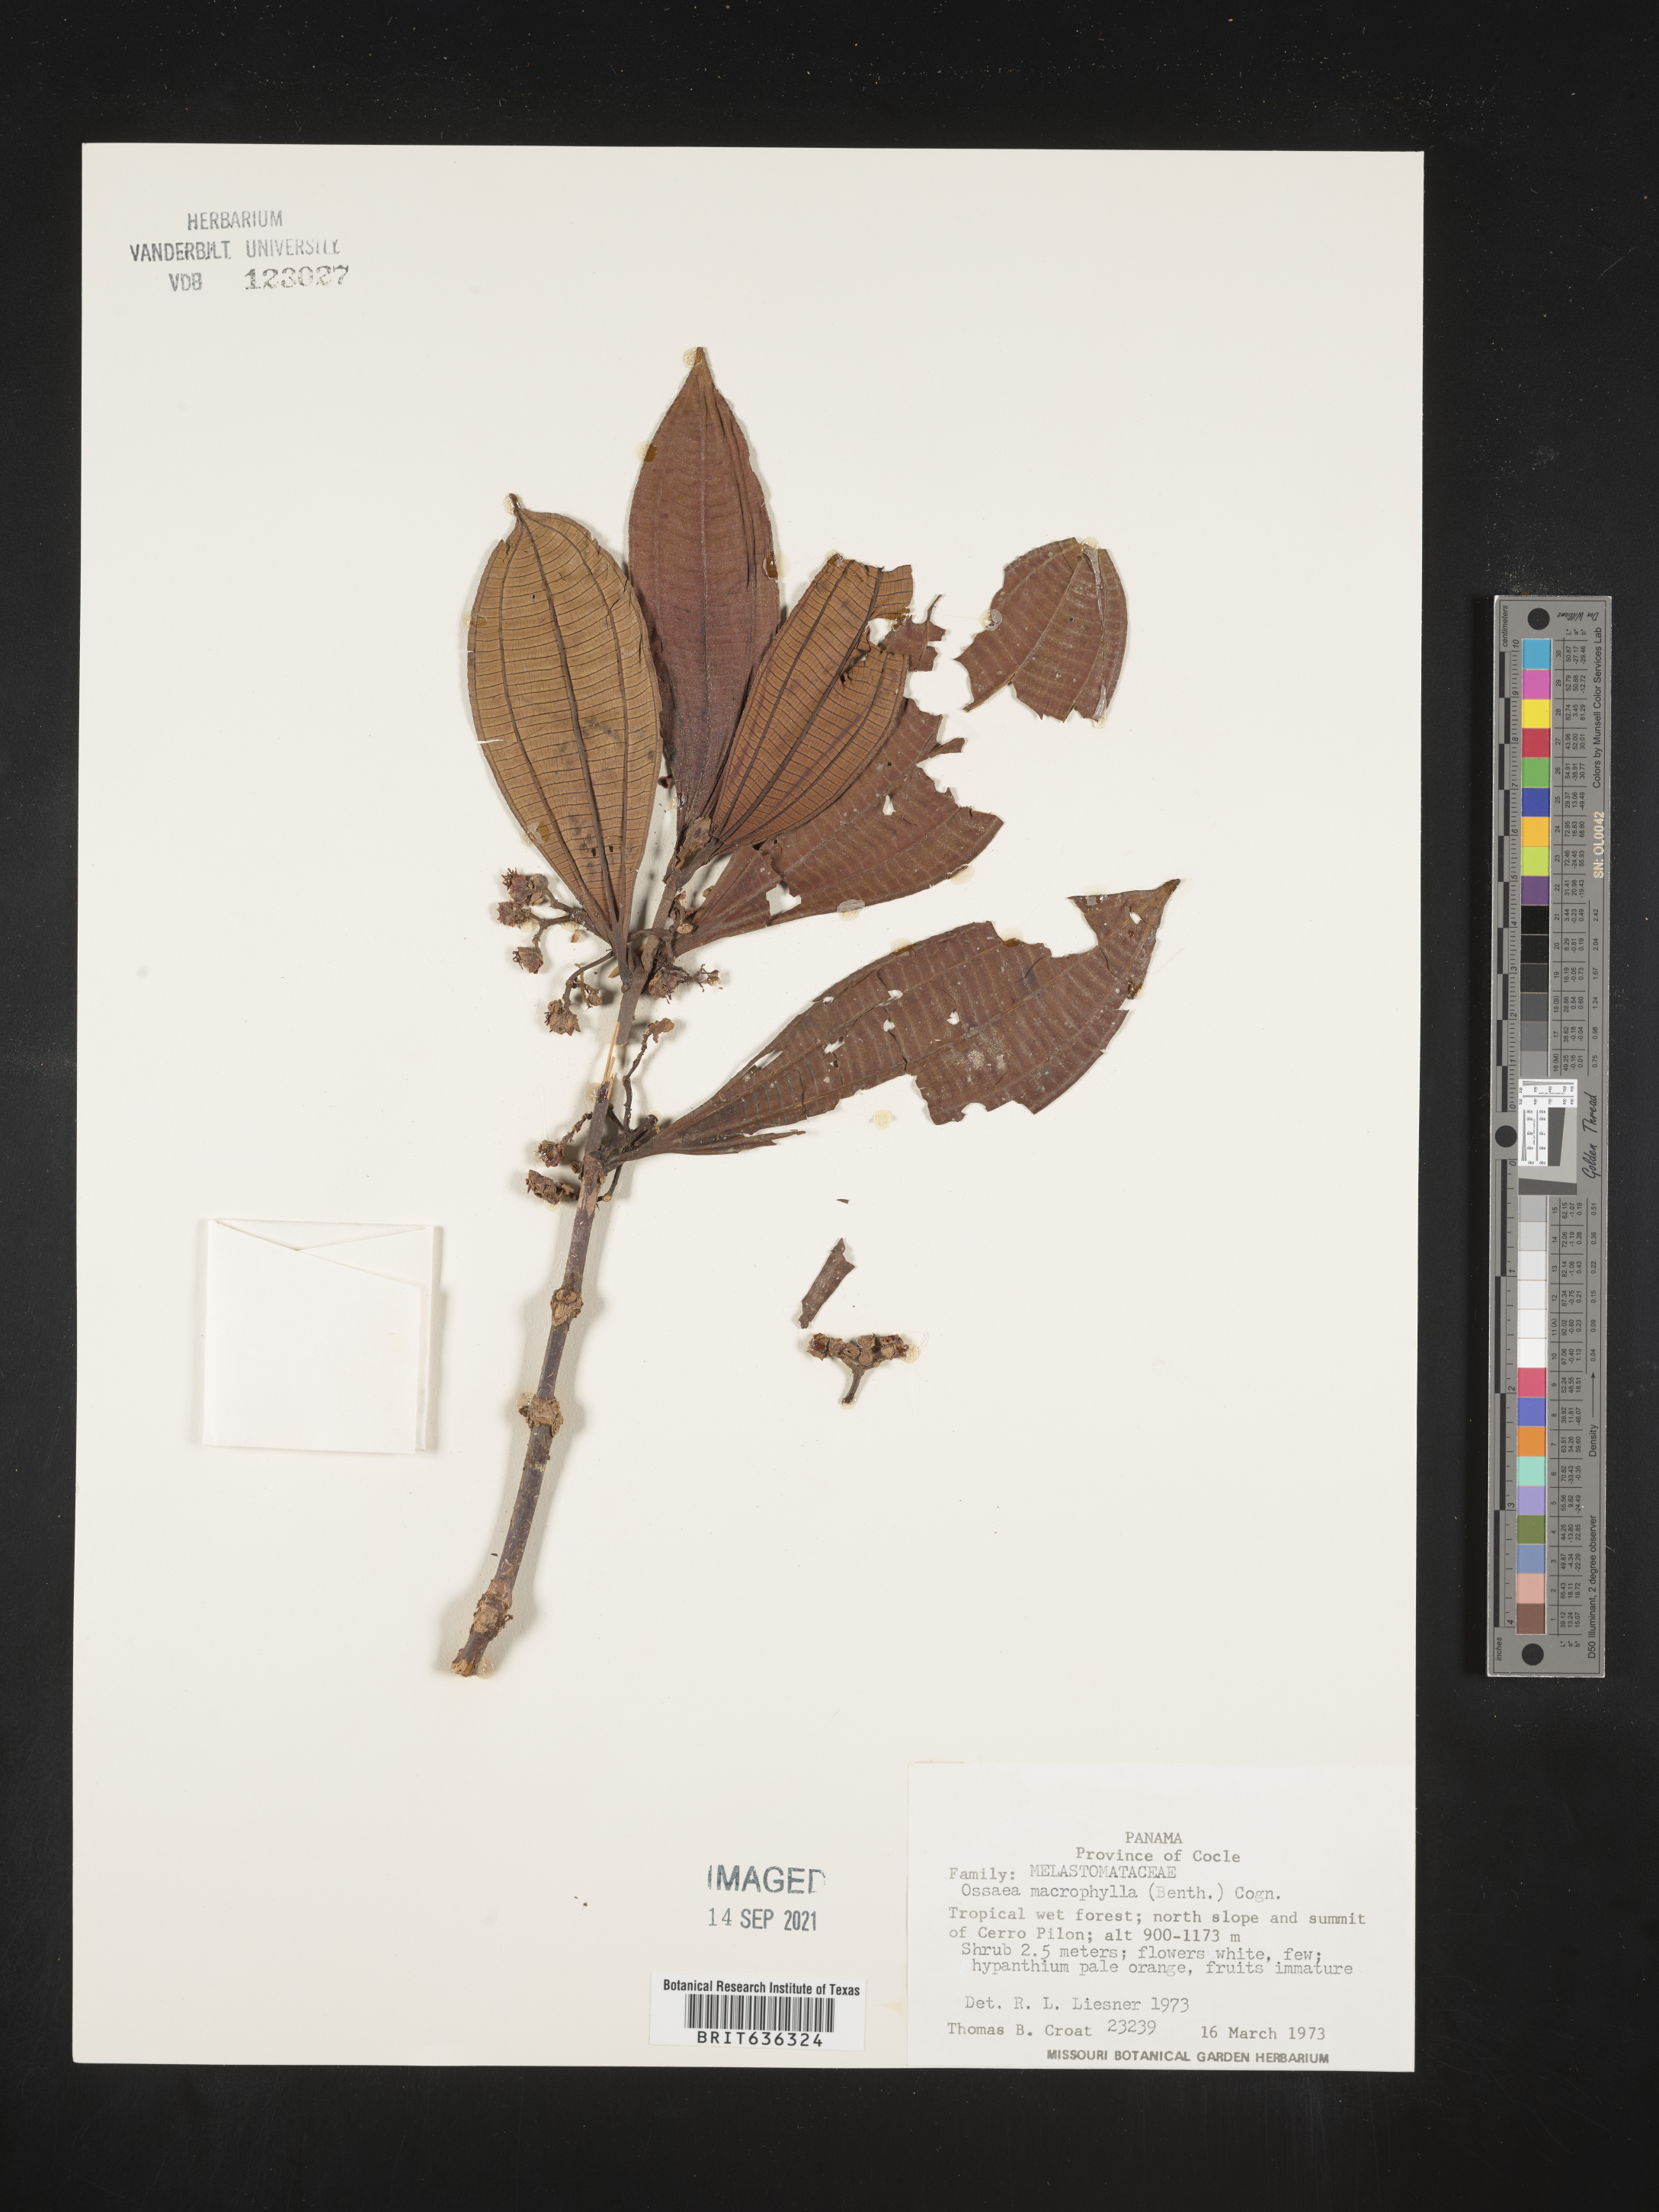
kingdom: Plantae
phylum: Tracheophyta
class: Magnoliopsida
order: Myrtales
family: Melastomataceae
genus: Ossaea
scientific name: Ossaea
